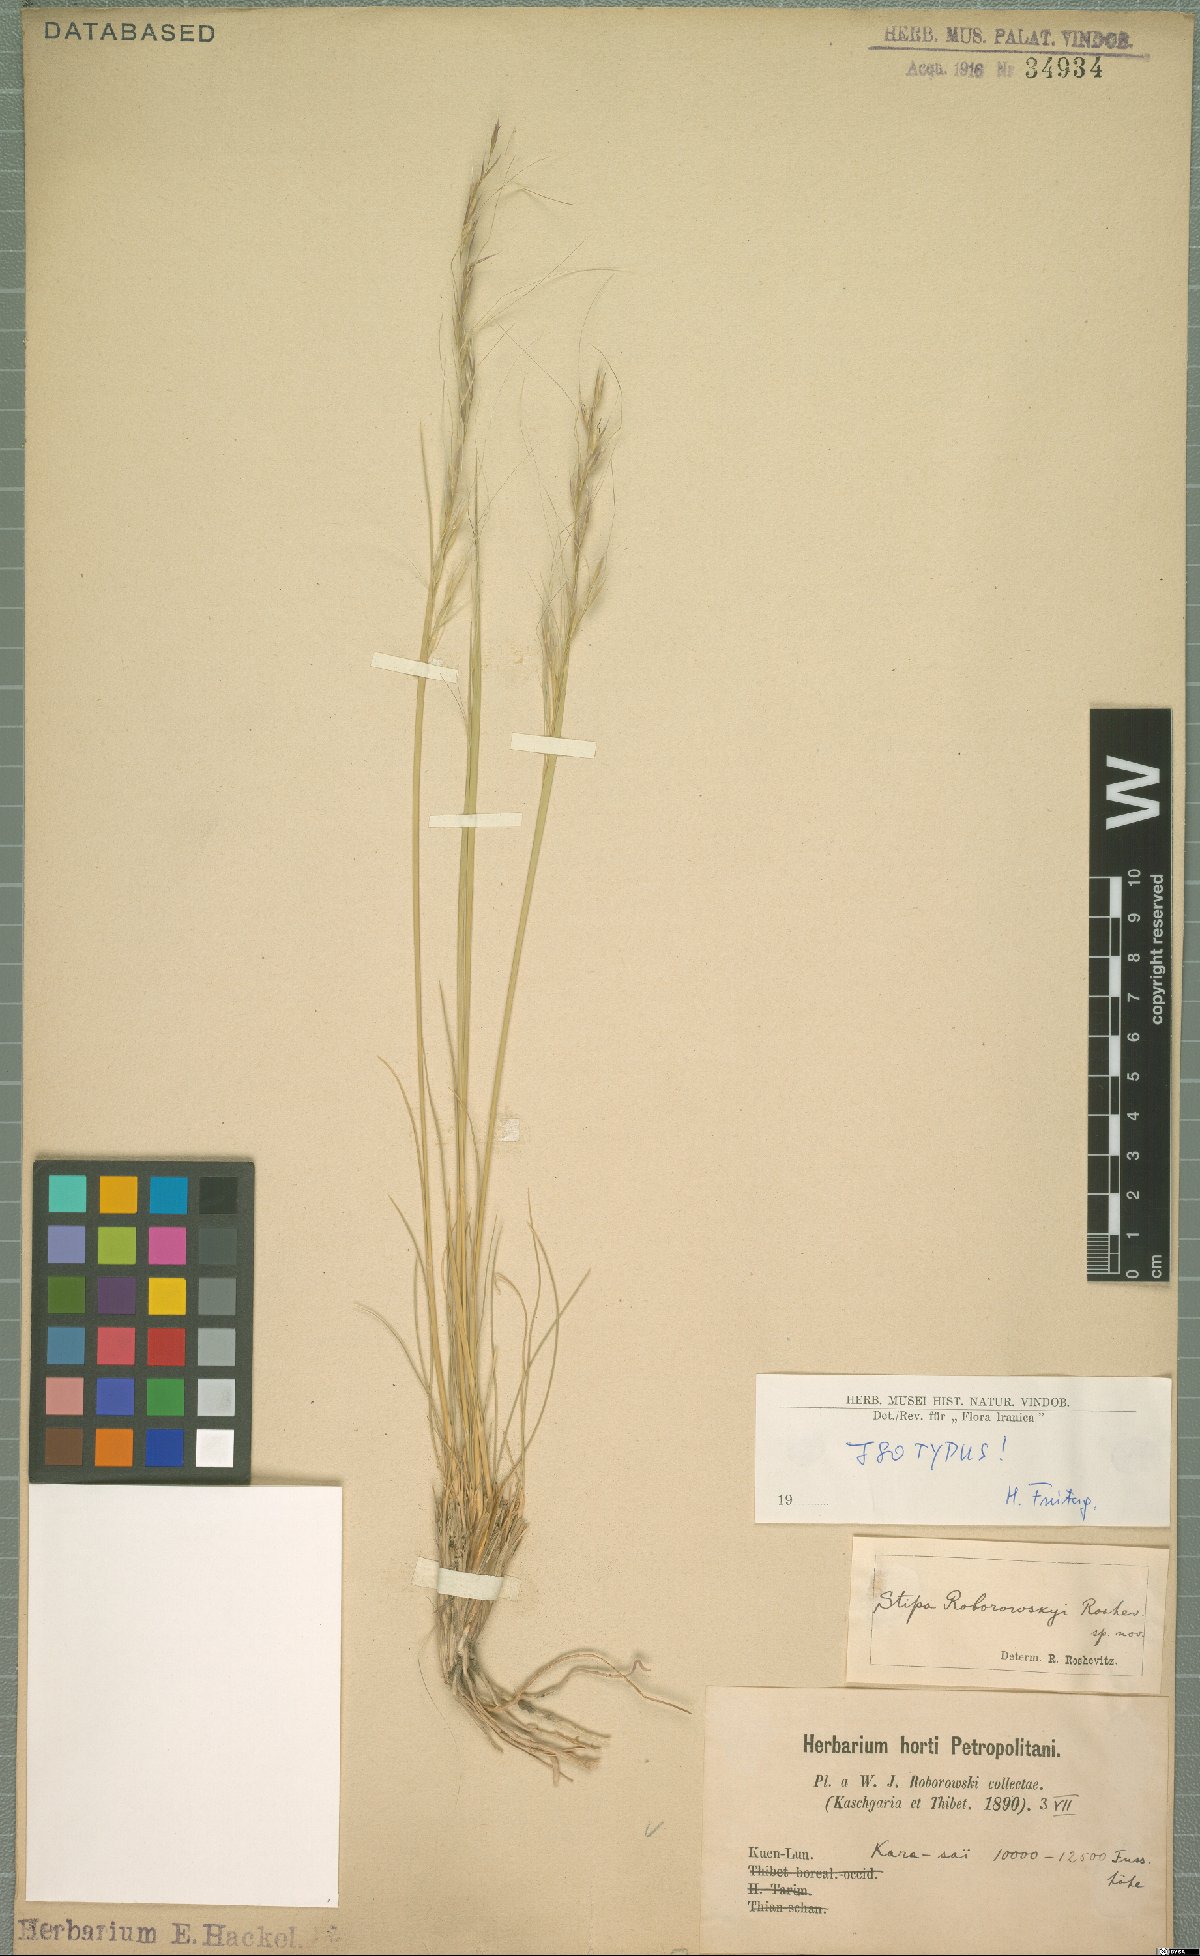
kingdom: Plantae
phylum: Tracheophyta
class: Liliopsida
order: Poales
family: Poaceae
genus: Stipa
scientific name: Stipa roborowskyi
